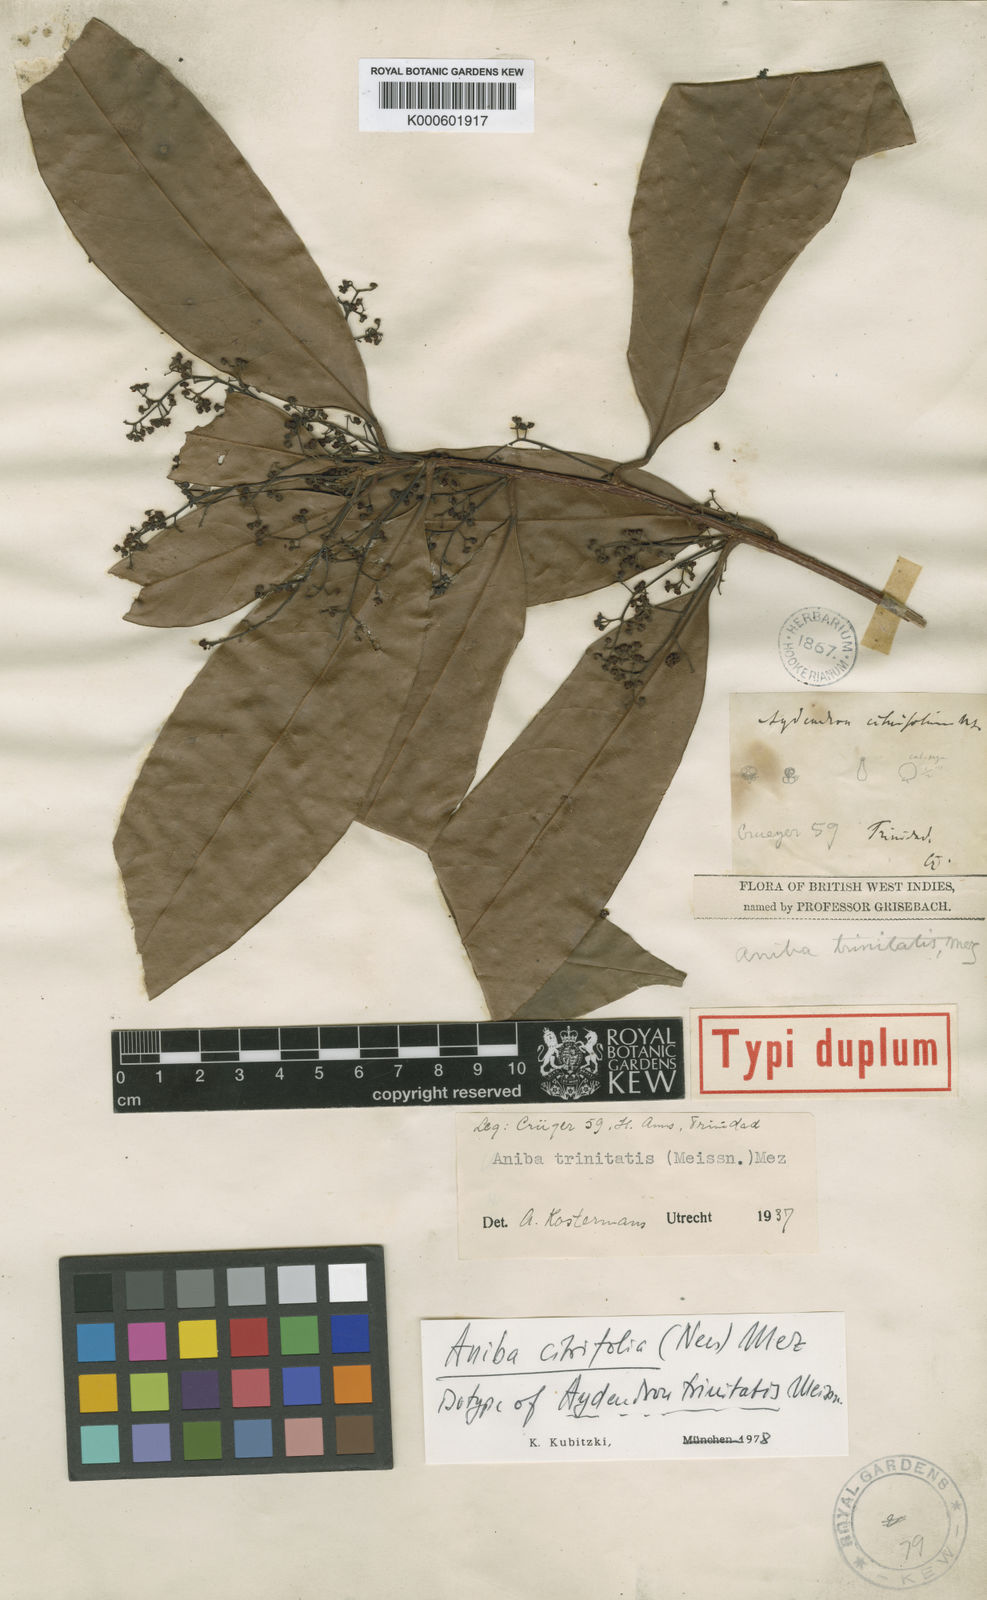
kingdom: Plantae
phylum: Tracheophyta
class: Magnoliopsida
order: Laurales
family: Lauraceae
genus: Aniba
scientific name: Aniba citrifolia
